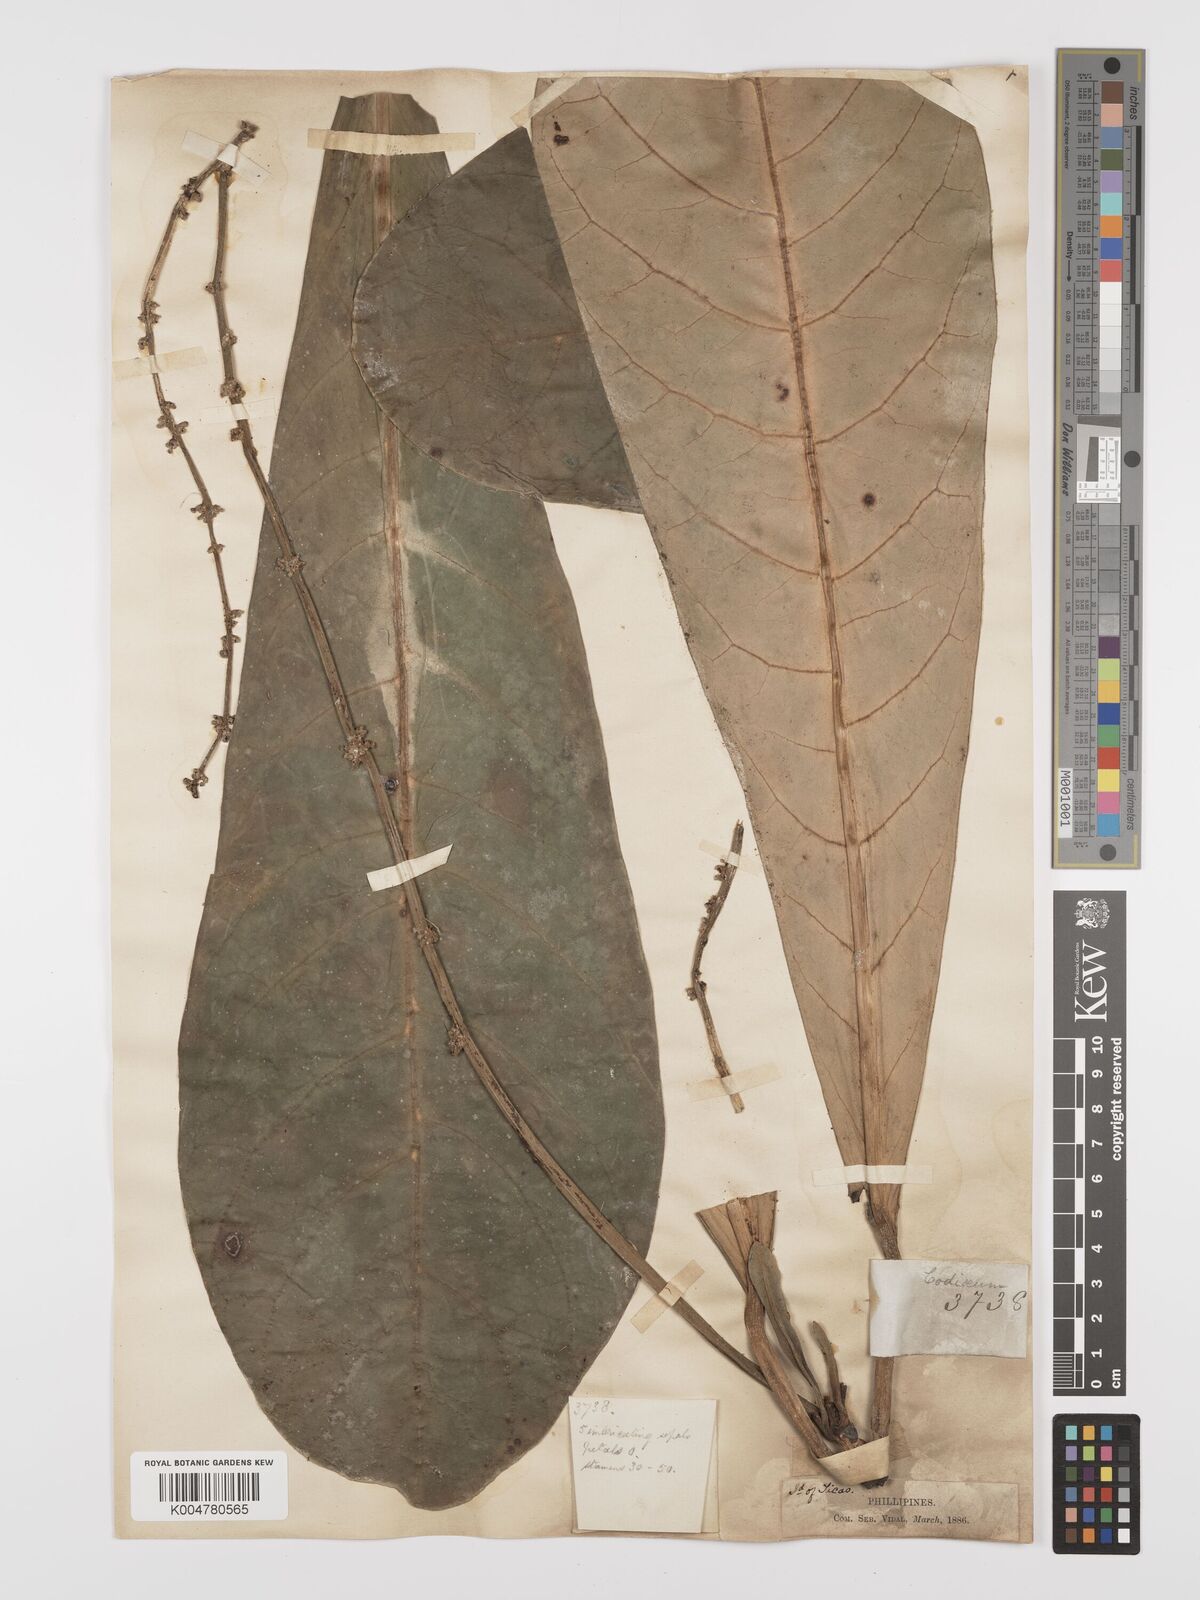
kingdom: Plantae
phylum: Tracheophyta
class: Magnoliopsida
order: Malpighiales
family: Euphorbiaceae
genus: Codiaeum
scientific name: Codiaeum
